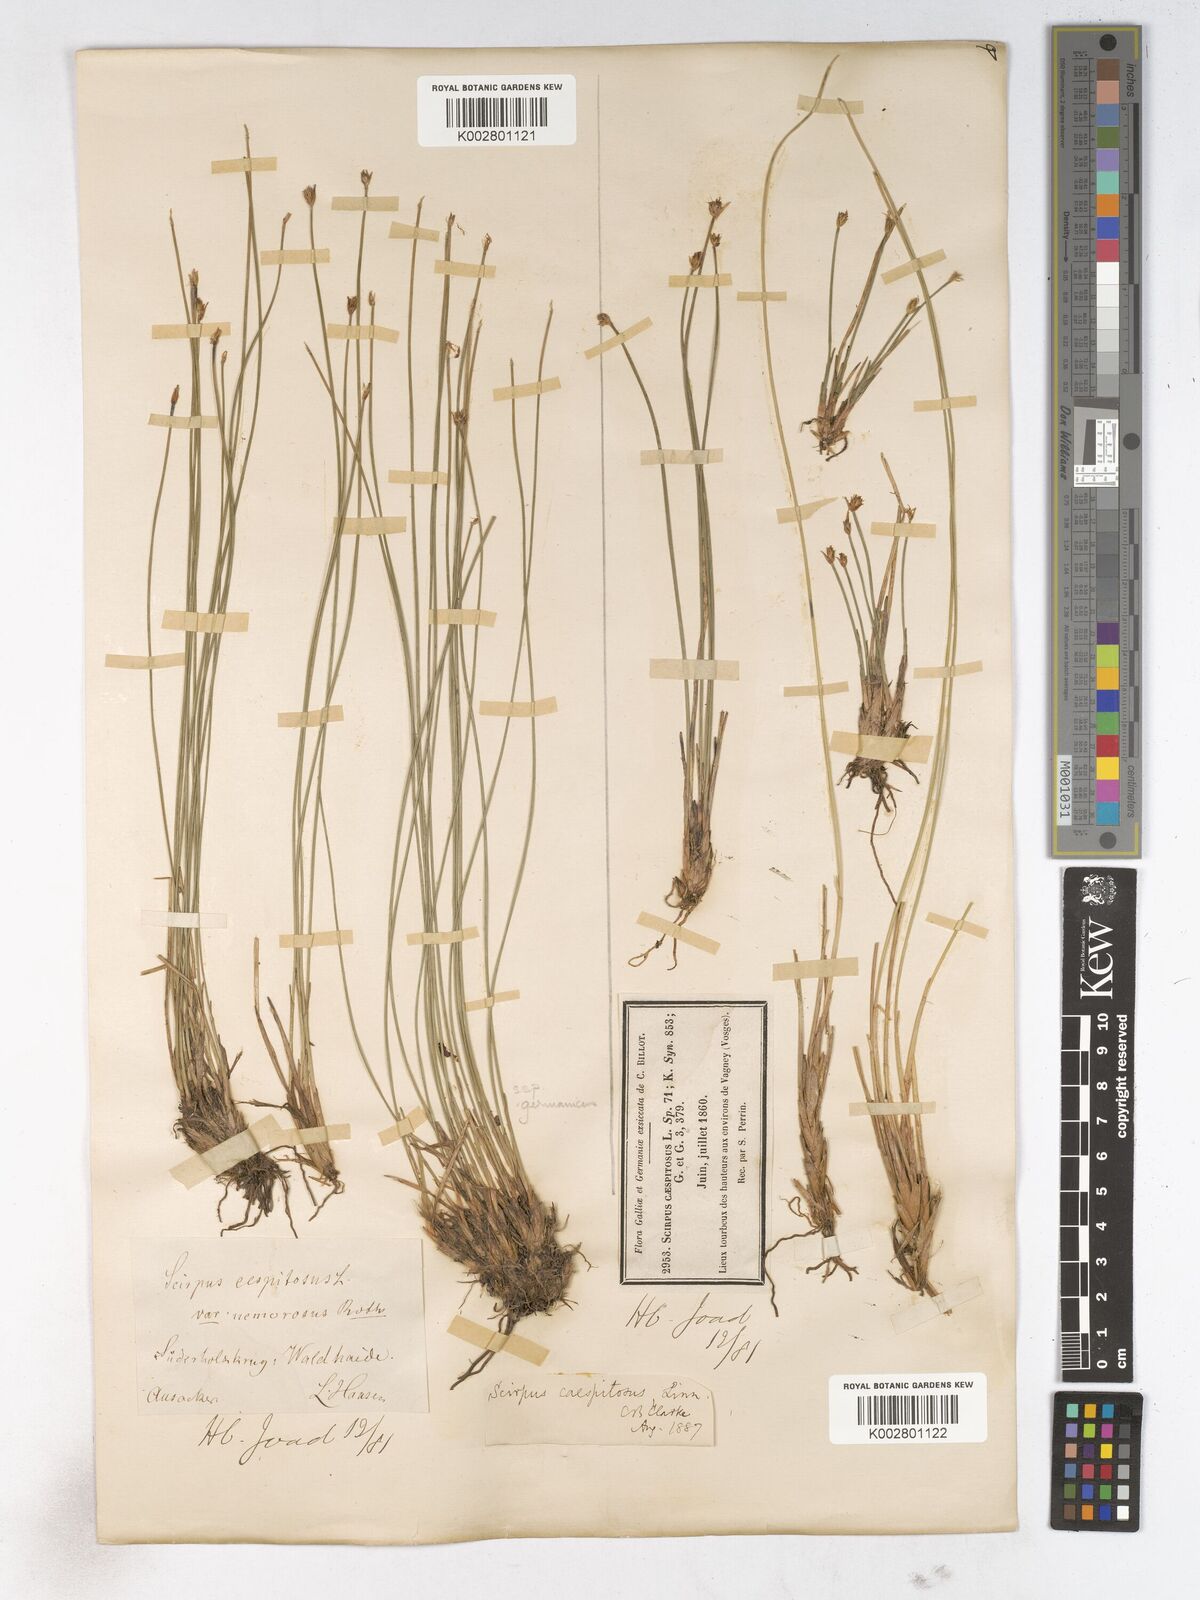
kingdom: Plantae
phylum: Tracheophyta
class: Liliopsida
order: Poales
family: Cyperaceae
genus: Trichophorum
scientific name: Trichophorum cespitosum
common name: Cespitose bulrush
